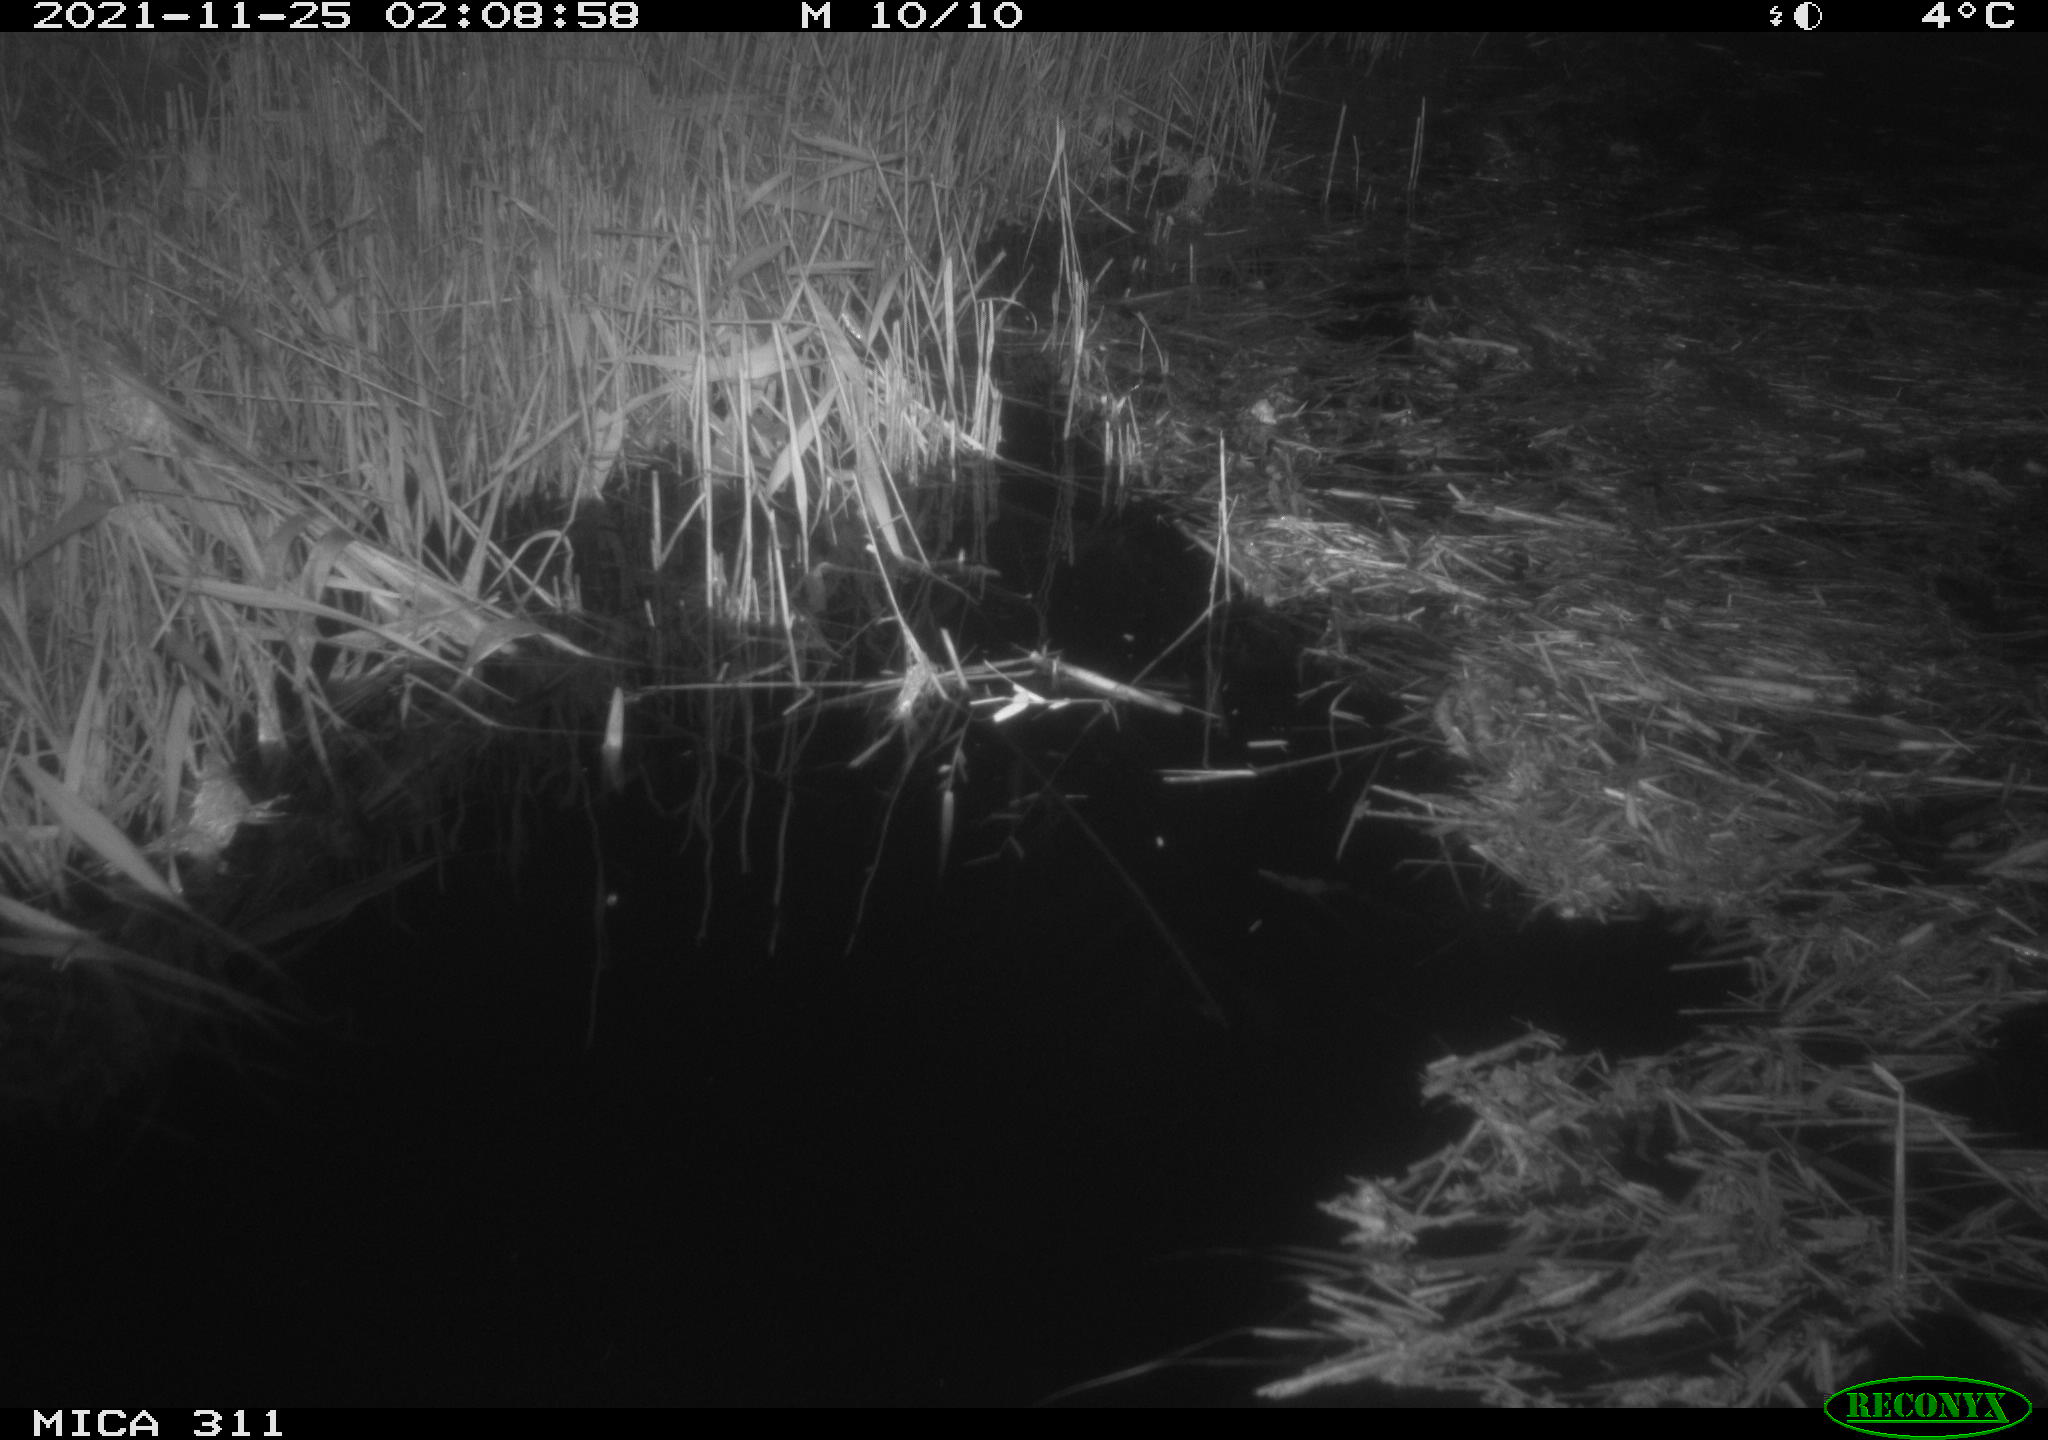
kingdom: Animalia
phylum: Chordata
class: Mammalia
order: Rodentia
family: Muridae
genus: Rattus
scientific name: Rattus norvegicus
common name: Brown rat
